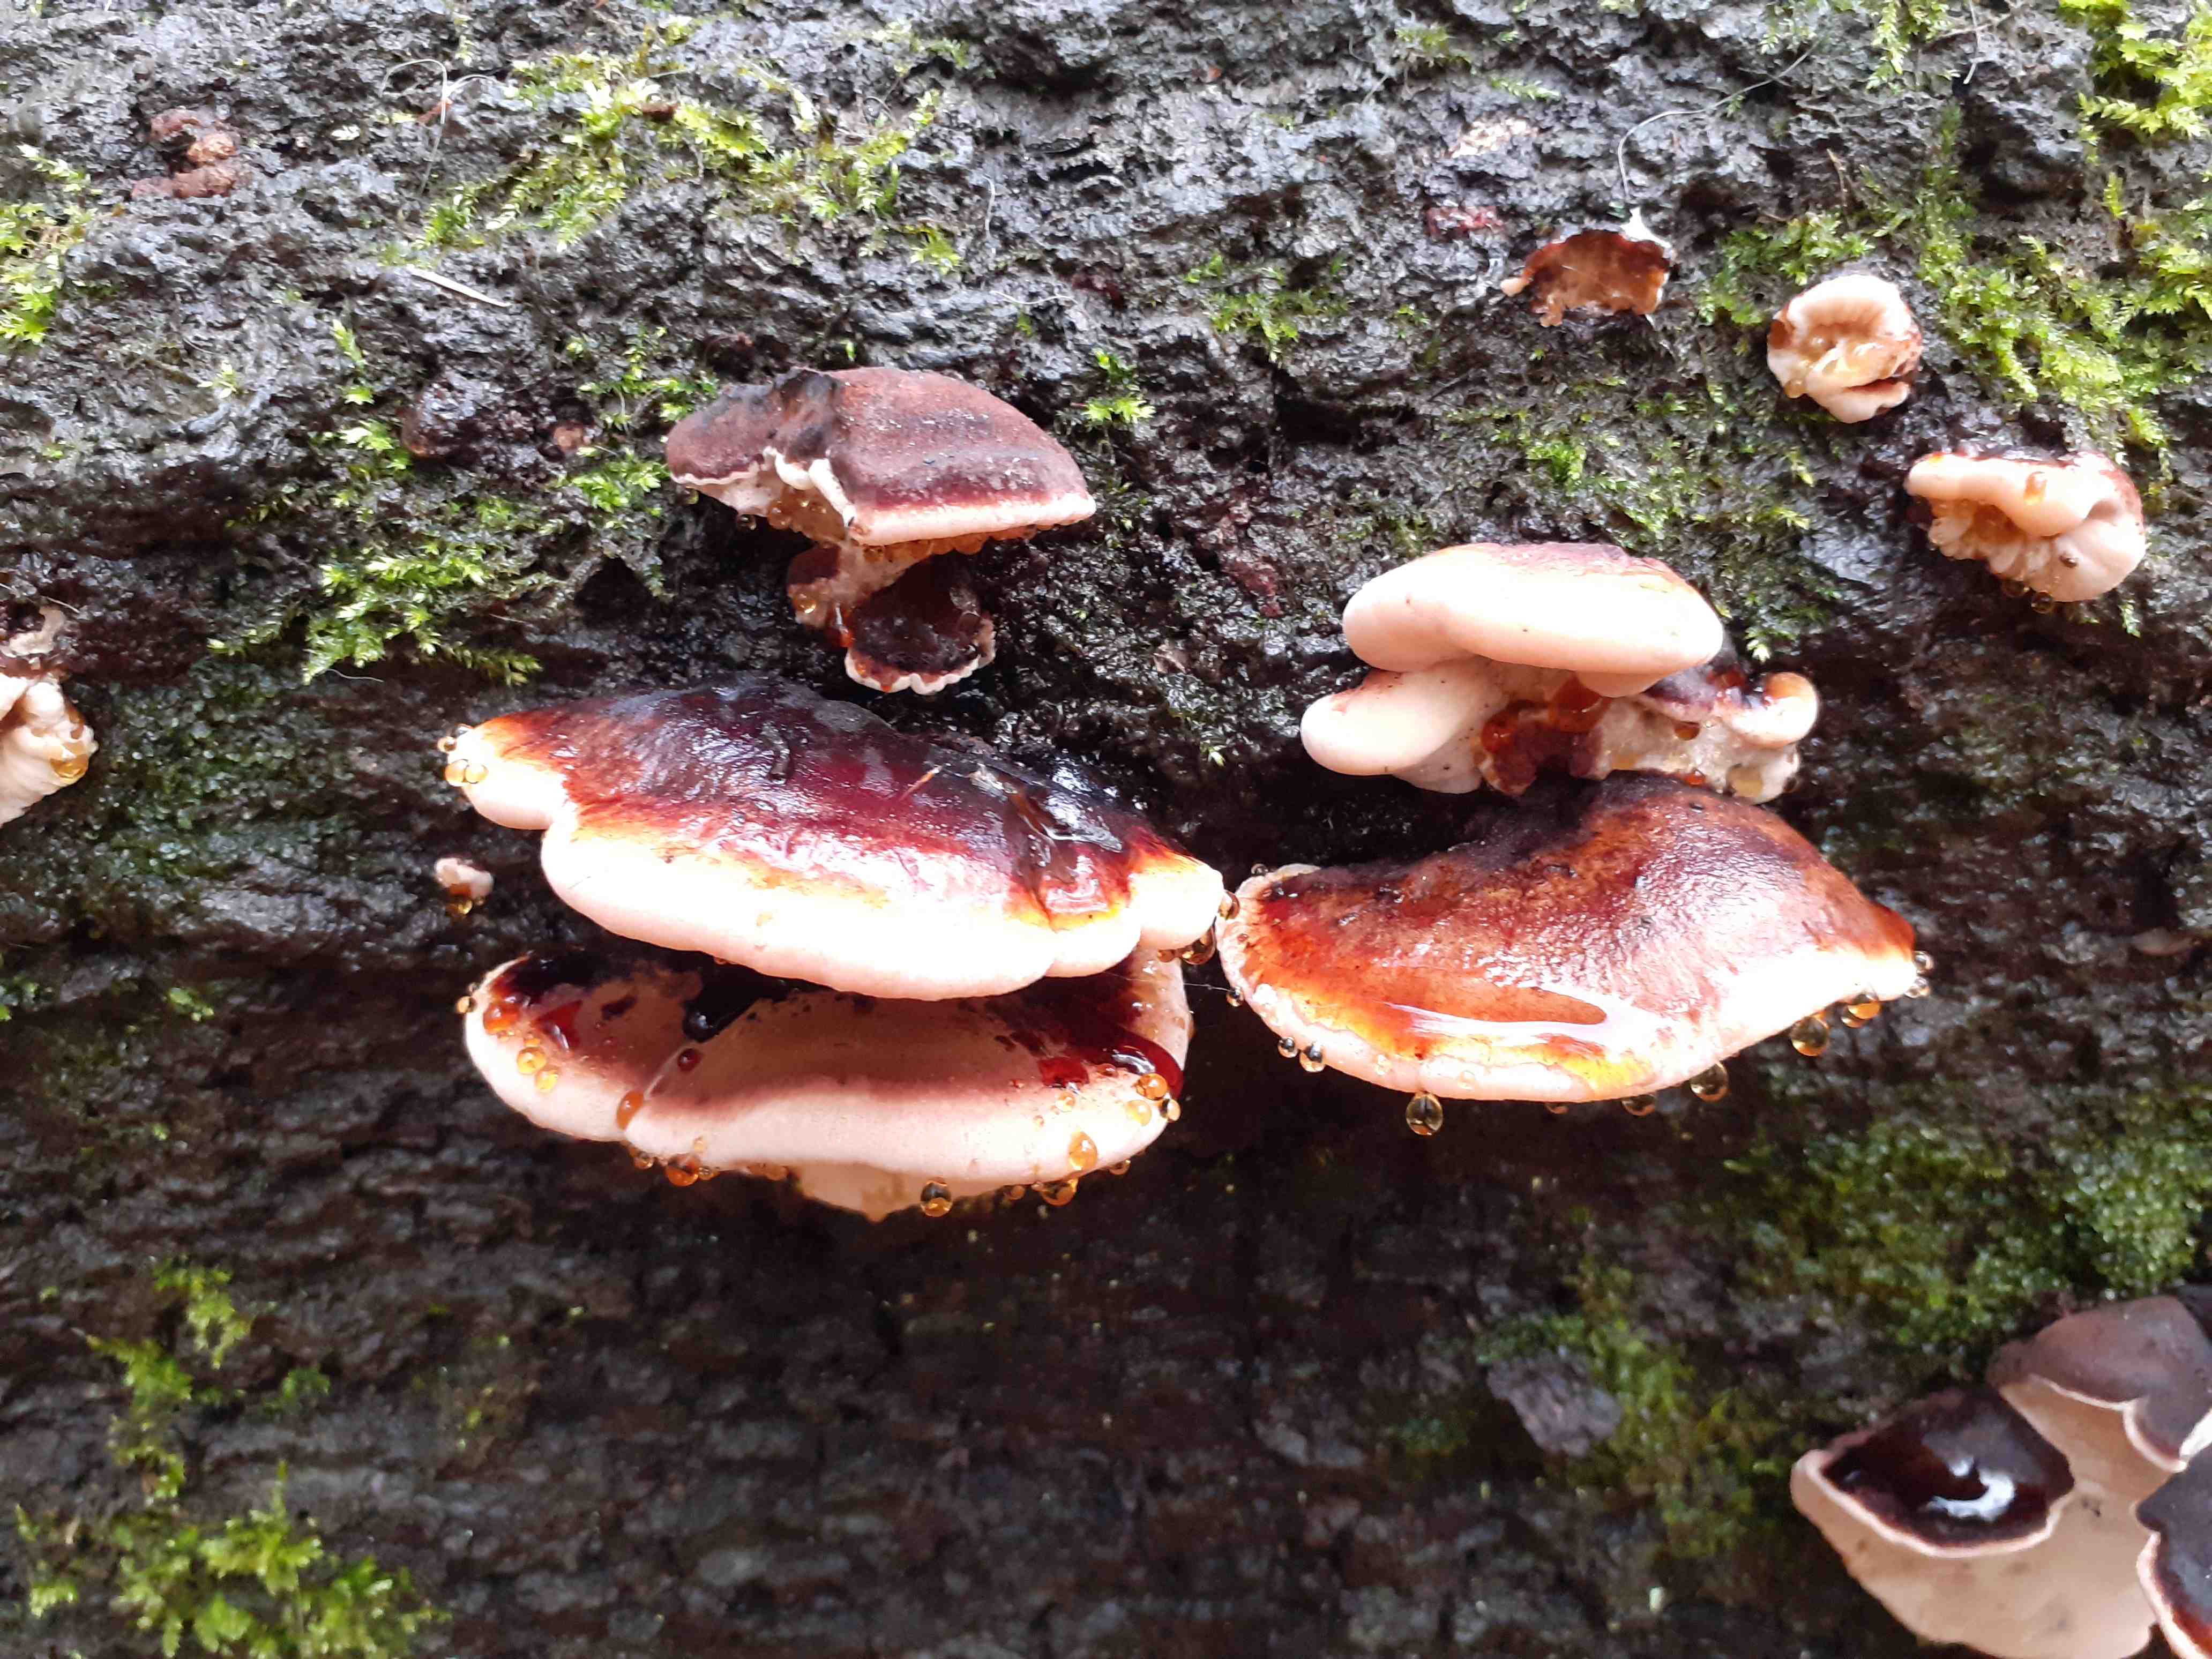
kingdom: Fungi
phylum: Basidiomycota
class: Agaricomycetes
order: Polyporales
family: Ischnodermataceae
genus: Ischnoderma
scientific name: Ischnoderma resinosum
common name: løv-tjæreporesvamp
